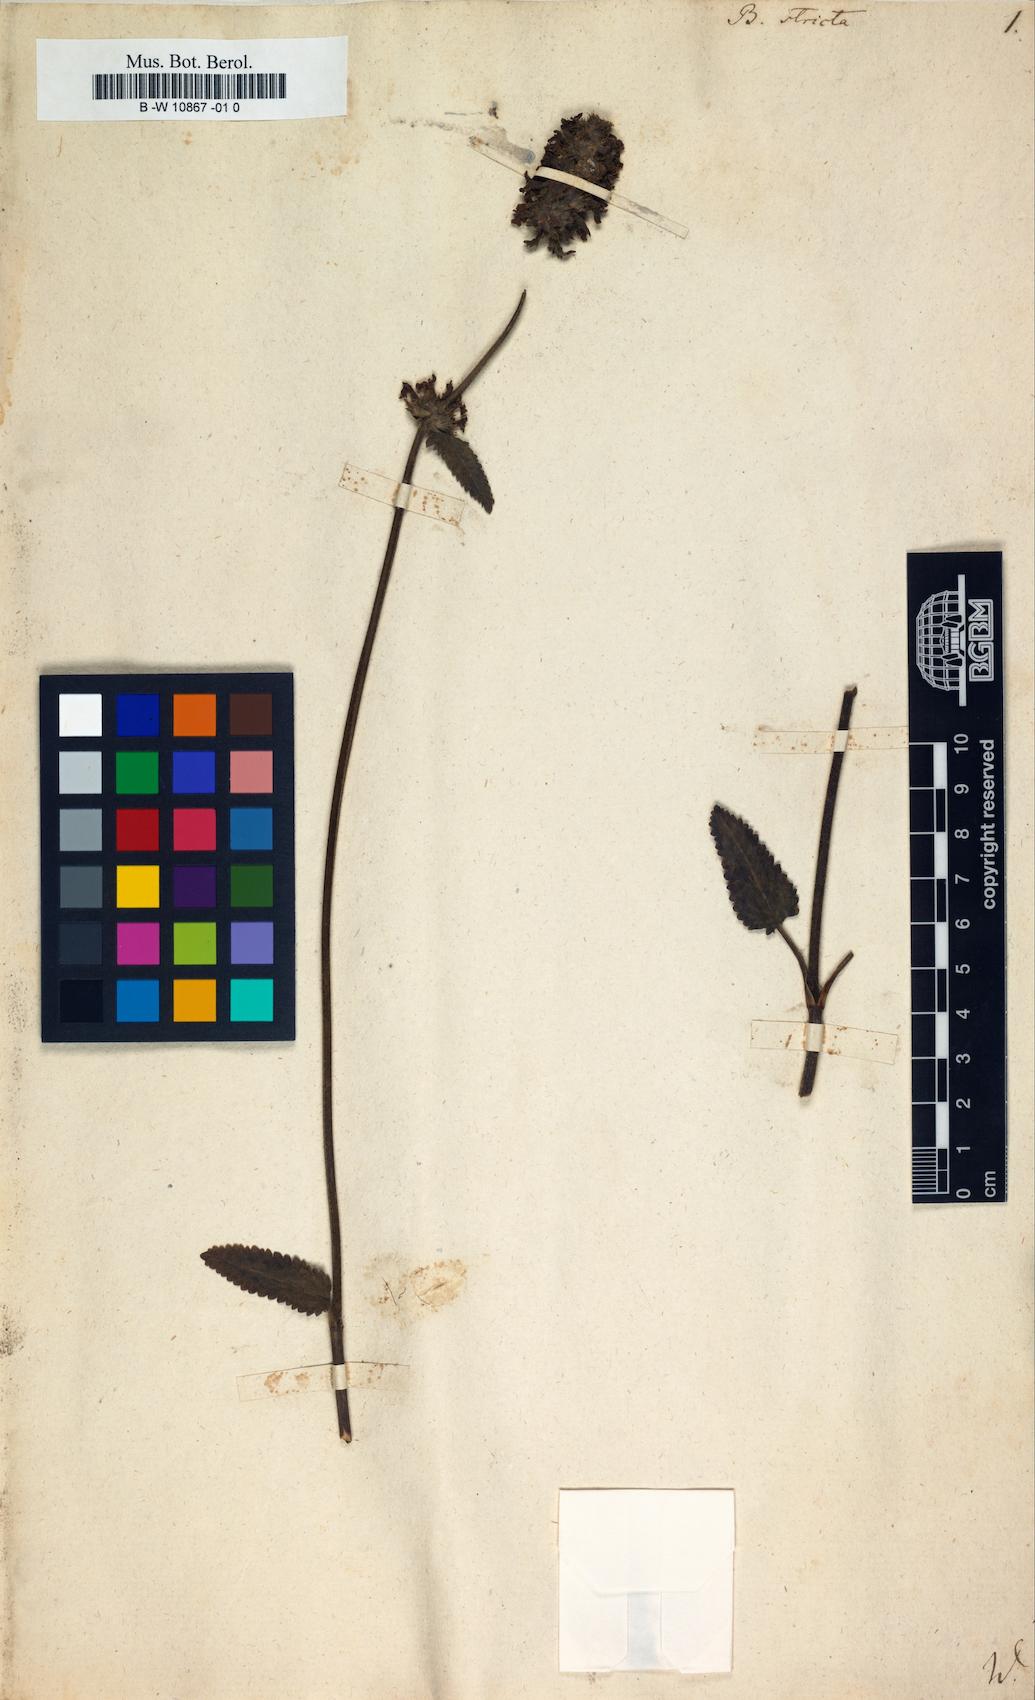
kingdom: Plantae
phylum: Tracheophyta
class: Magnoliopsida
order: Lamiales
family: Lamiaceae
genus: Betonica
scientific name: Betonica officinalis
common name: Bishop's-wort
